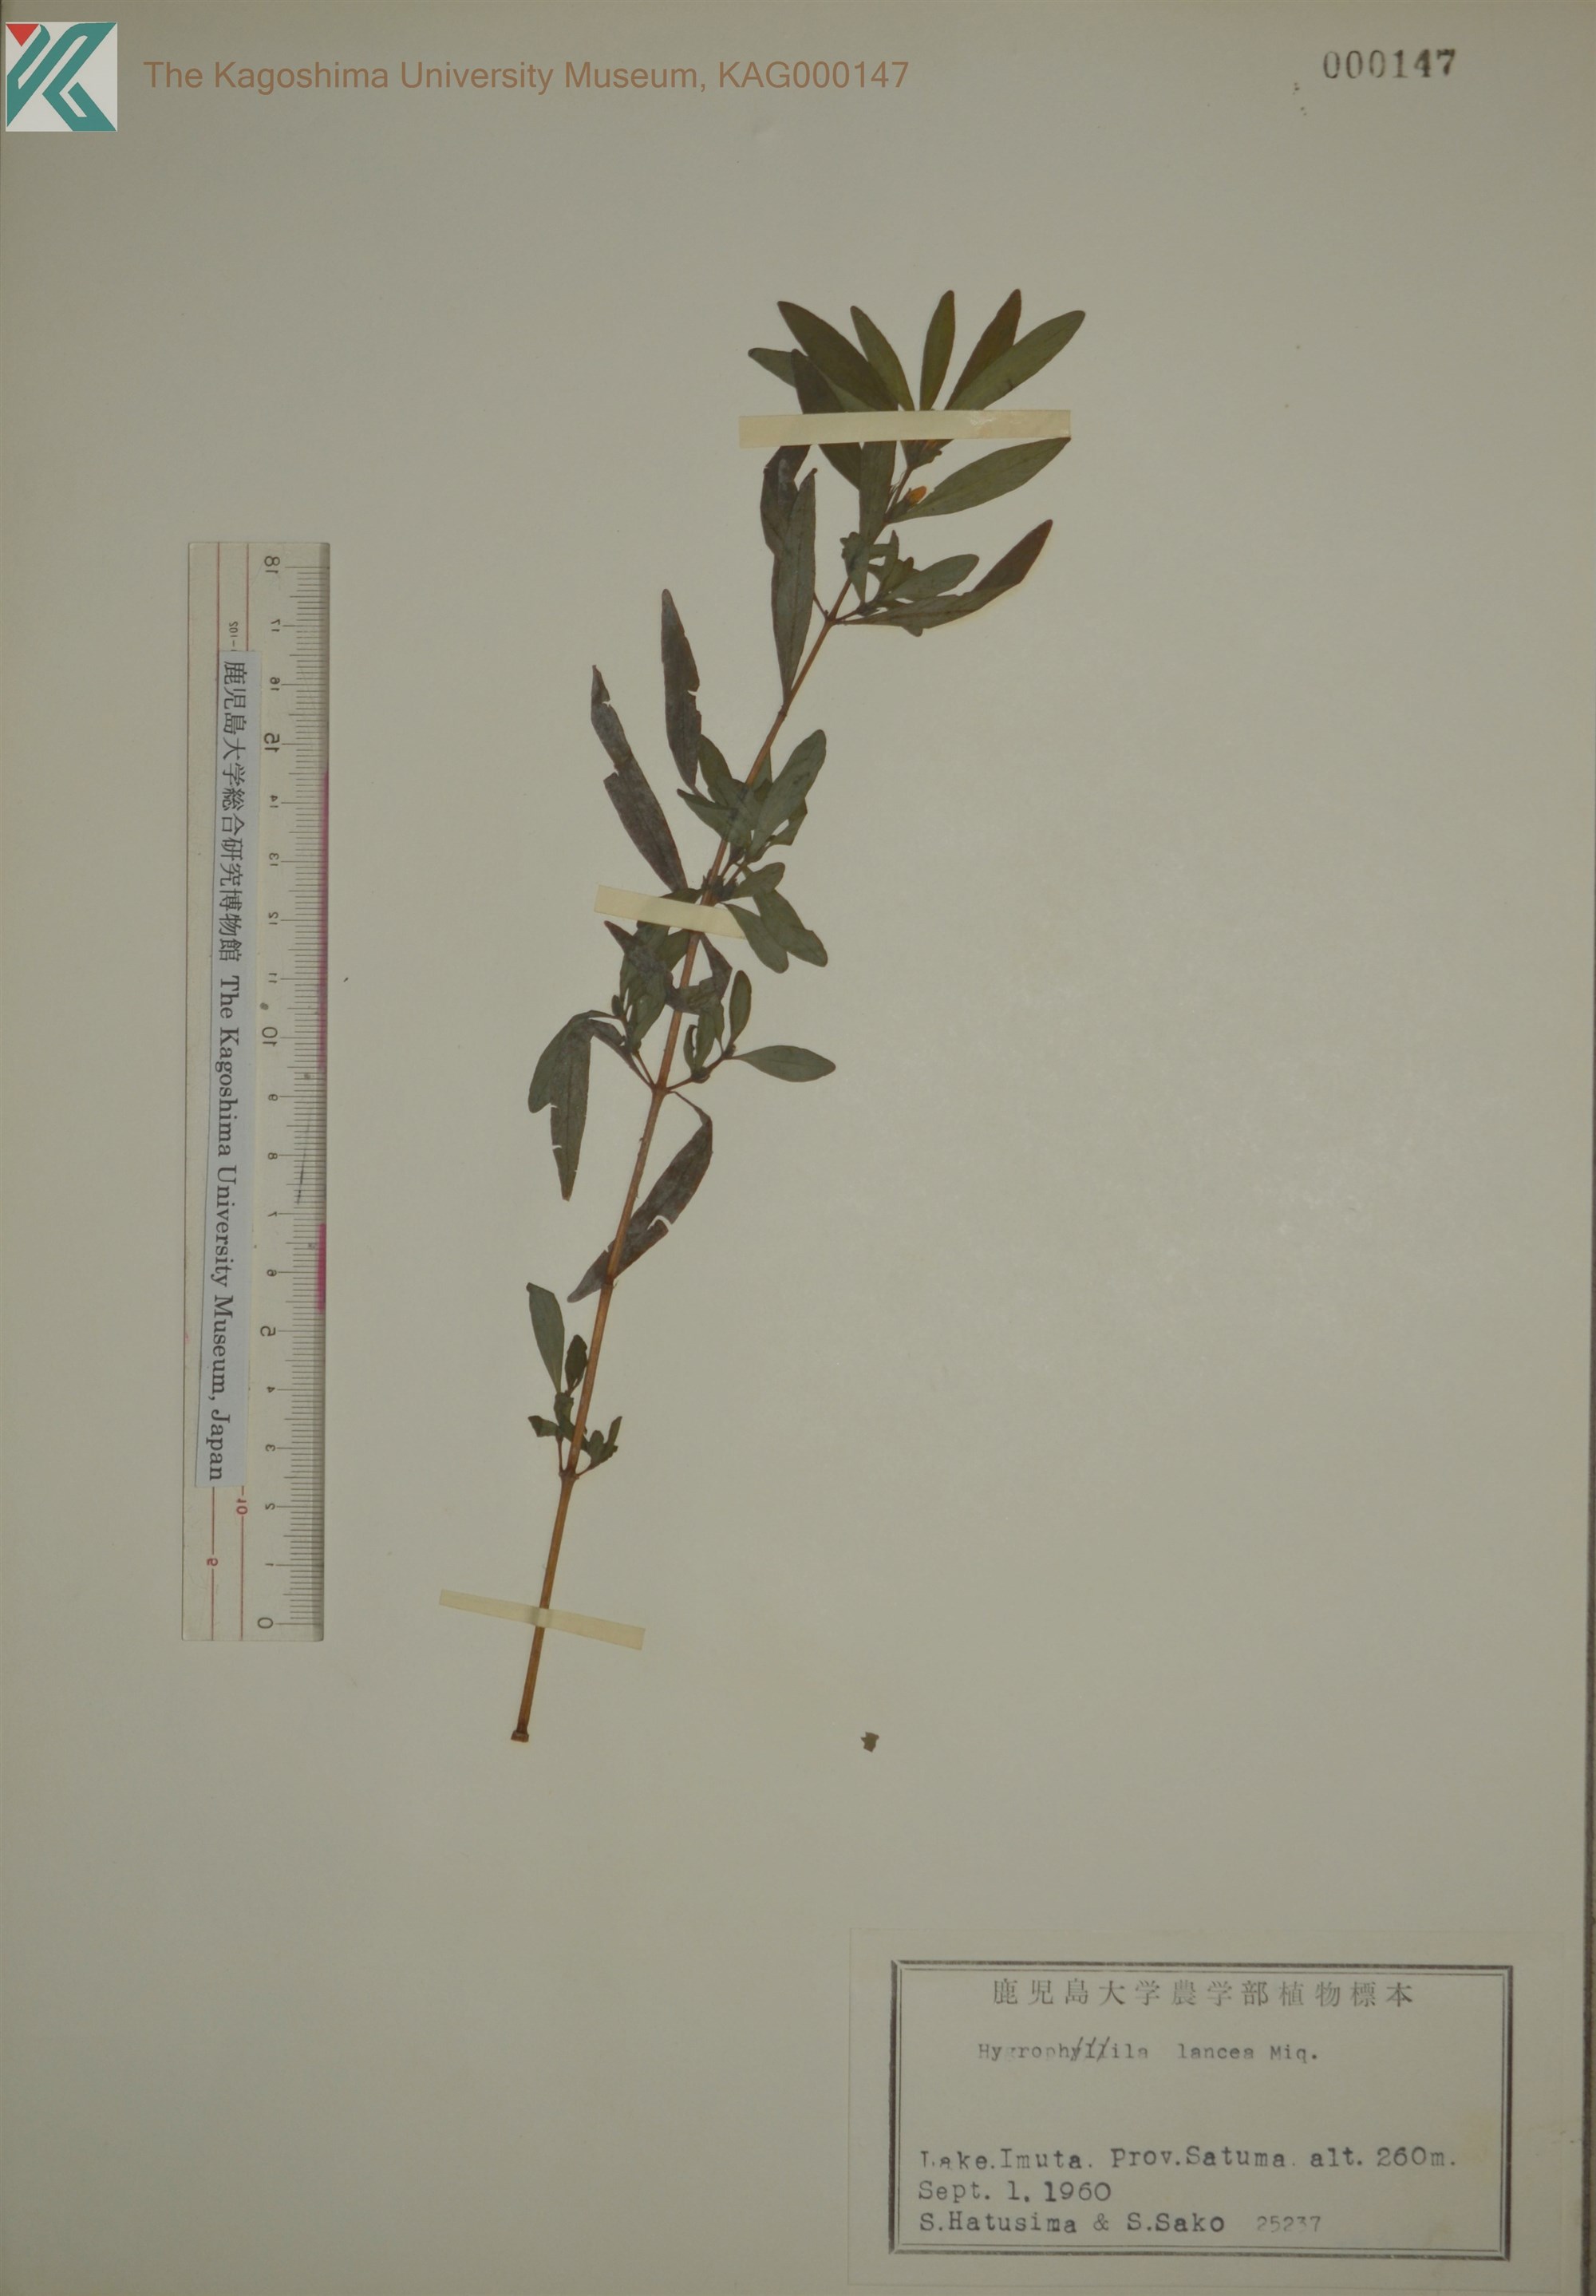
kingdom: Plantae
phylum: Tracheophyta
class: Magnoliopsida
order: Lamiales
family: Acanthaceae
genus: Hygrophila
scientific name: Hygrophila ringens
